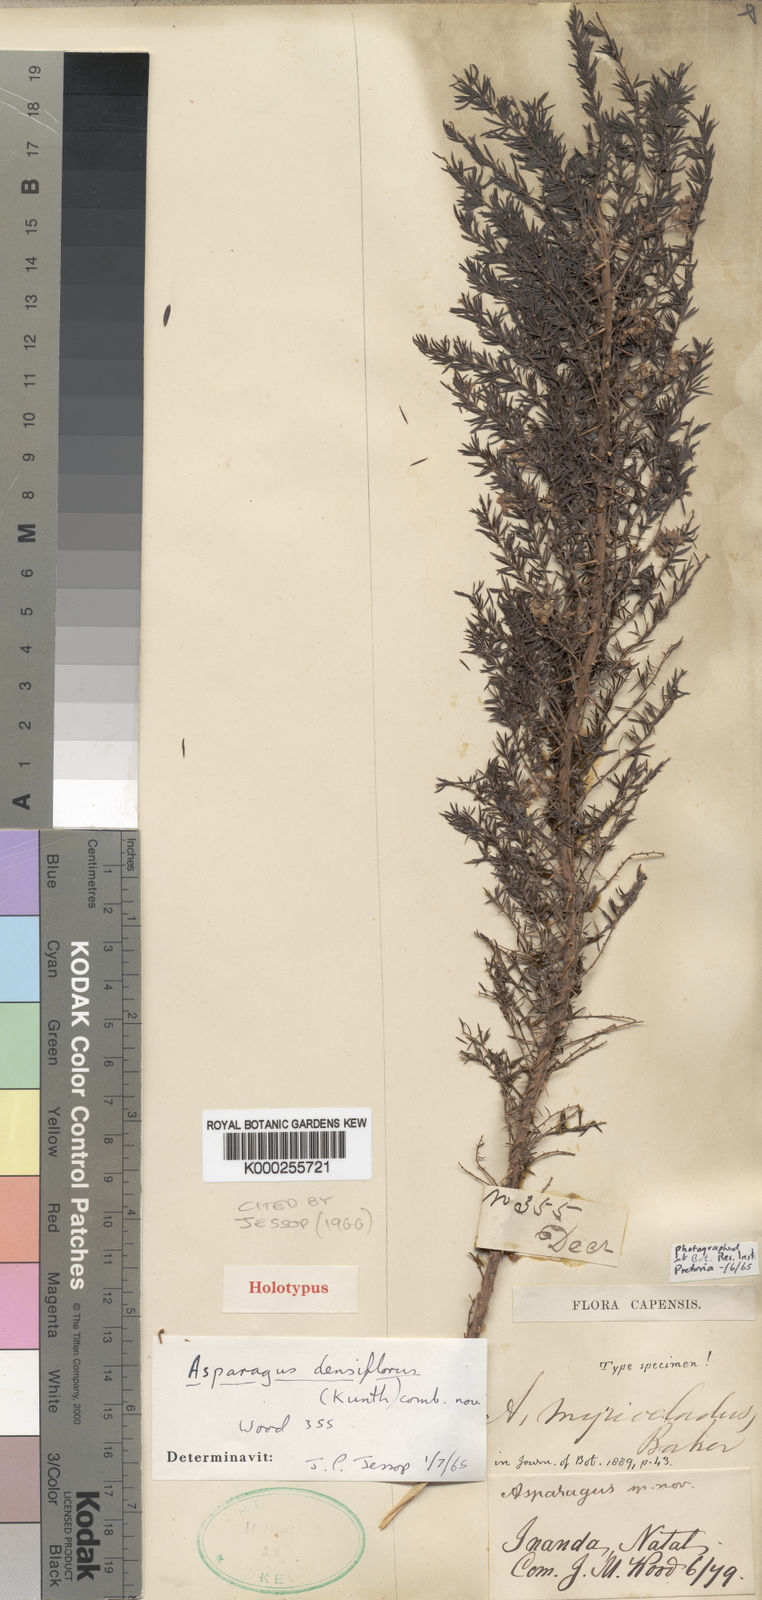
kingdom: Plantae
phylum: Tracheophyta
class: Liliopsida
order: Asparagales
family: Asparagaceae
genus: Asparagus
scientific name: Asparagus densiflorus
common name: Asparagus fern
